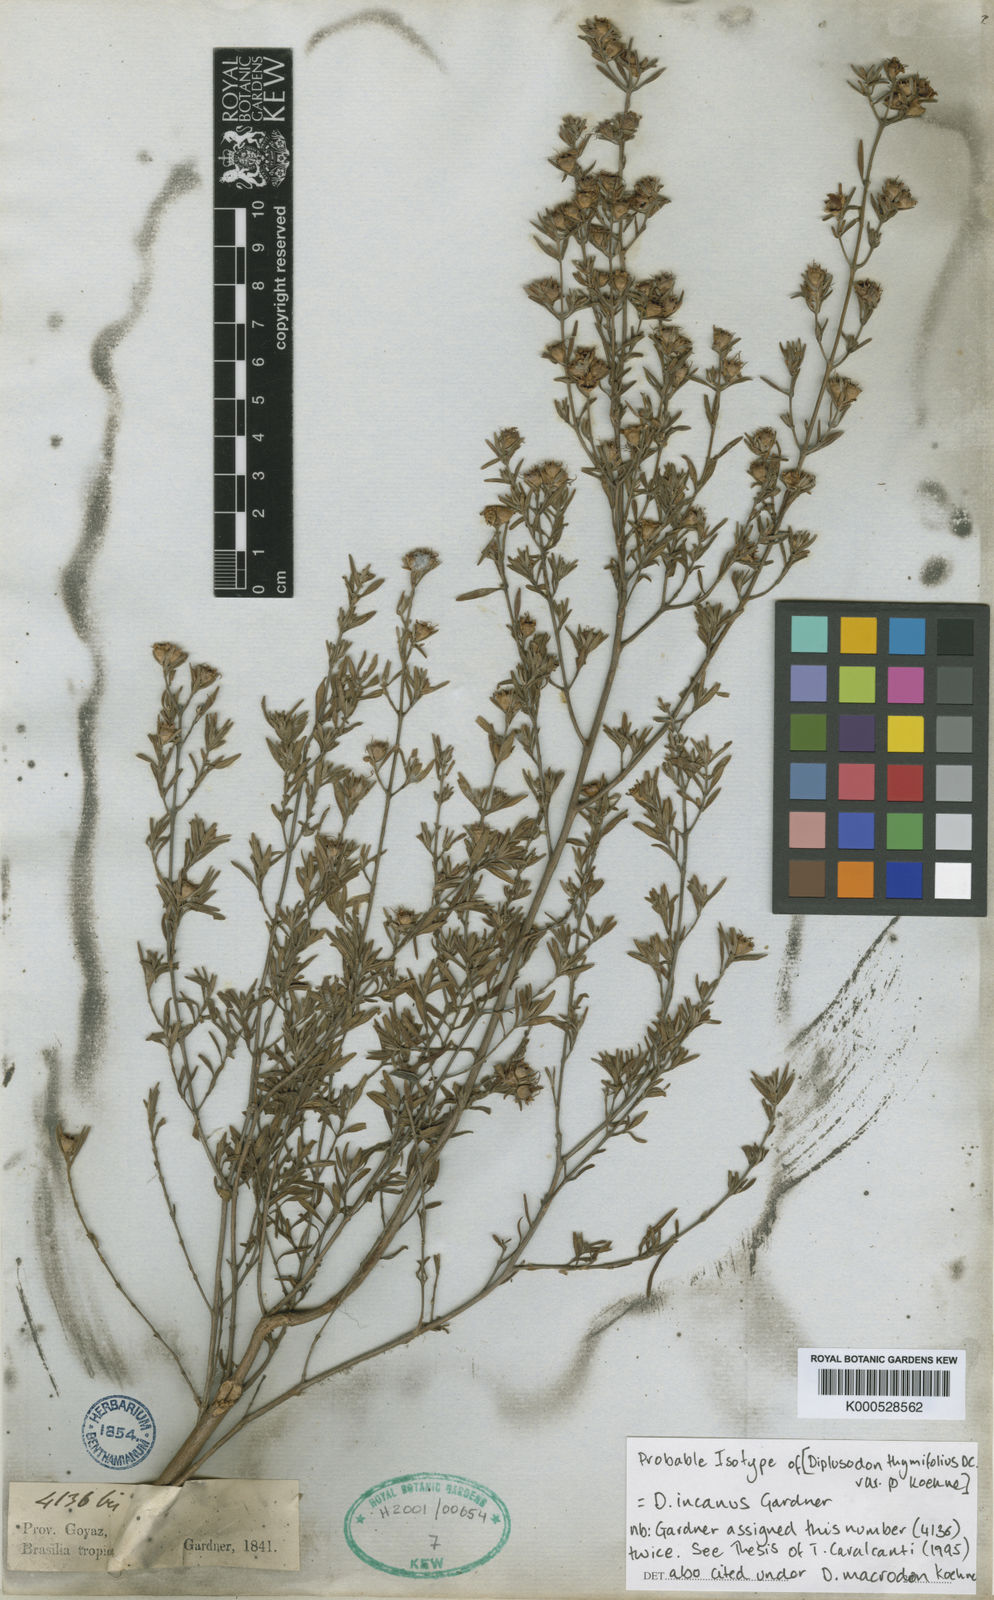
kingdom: Plantae
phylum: Tracheophyta
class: Magnoliopsida
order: Myrtales
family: Lythraceae
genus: Diplusodon
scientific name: Diplusodon incanus
